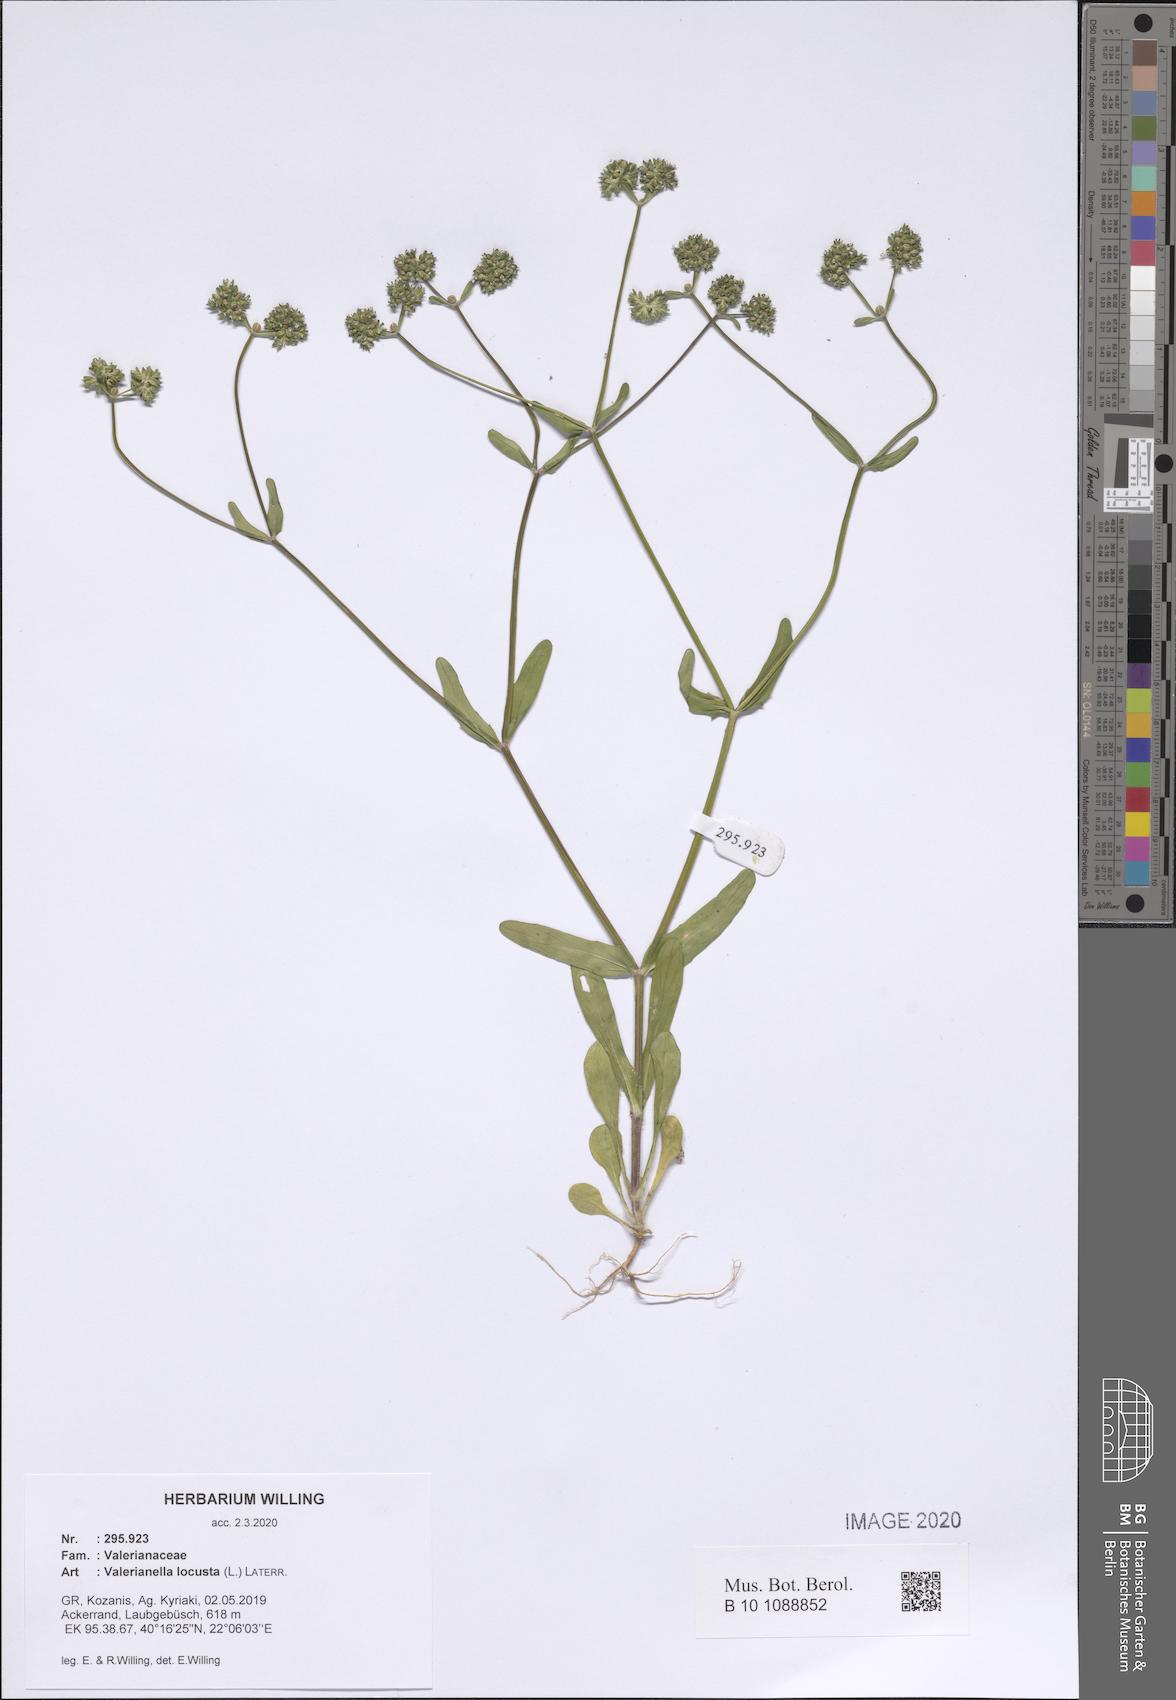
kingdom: Plantae
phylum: Tracheophyta
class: Magnoliopsida
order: Dipsacales
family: Caprifoliaceae
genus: Valerianella
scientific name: Valerianella locusta
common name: Common cornsalad
